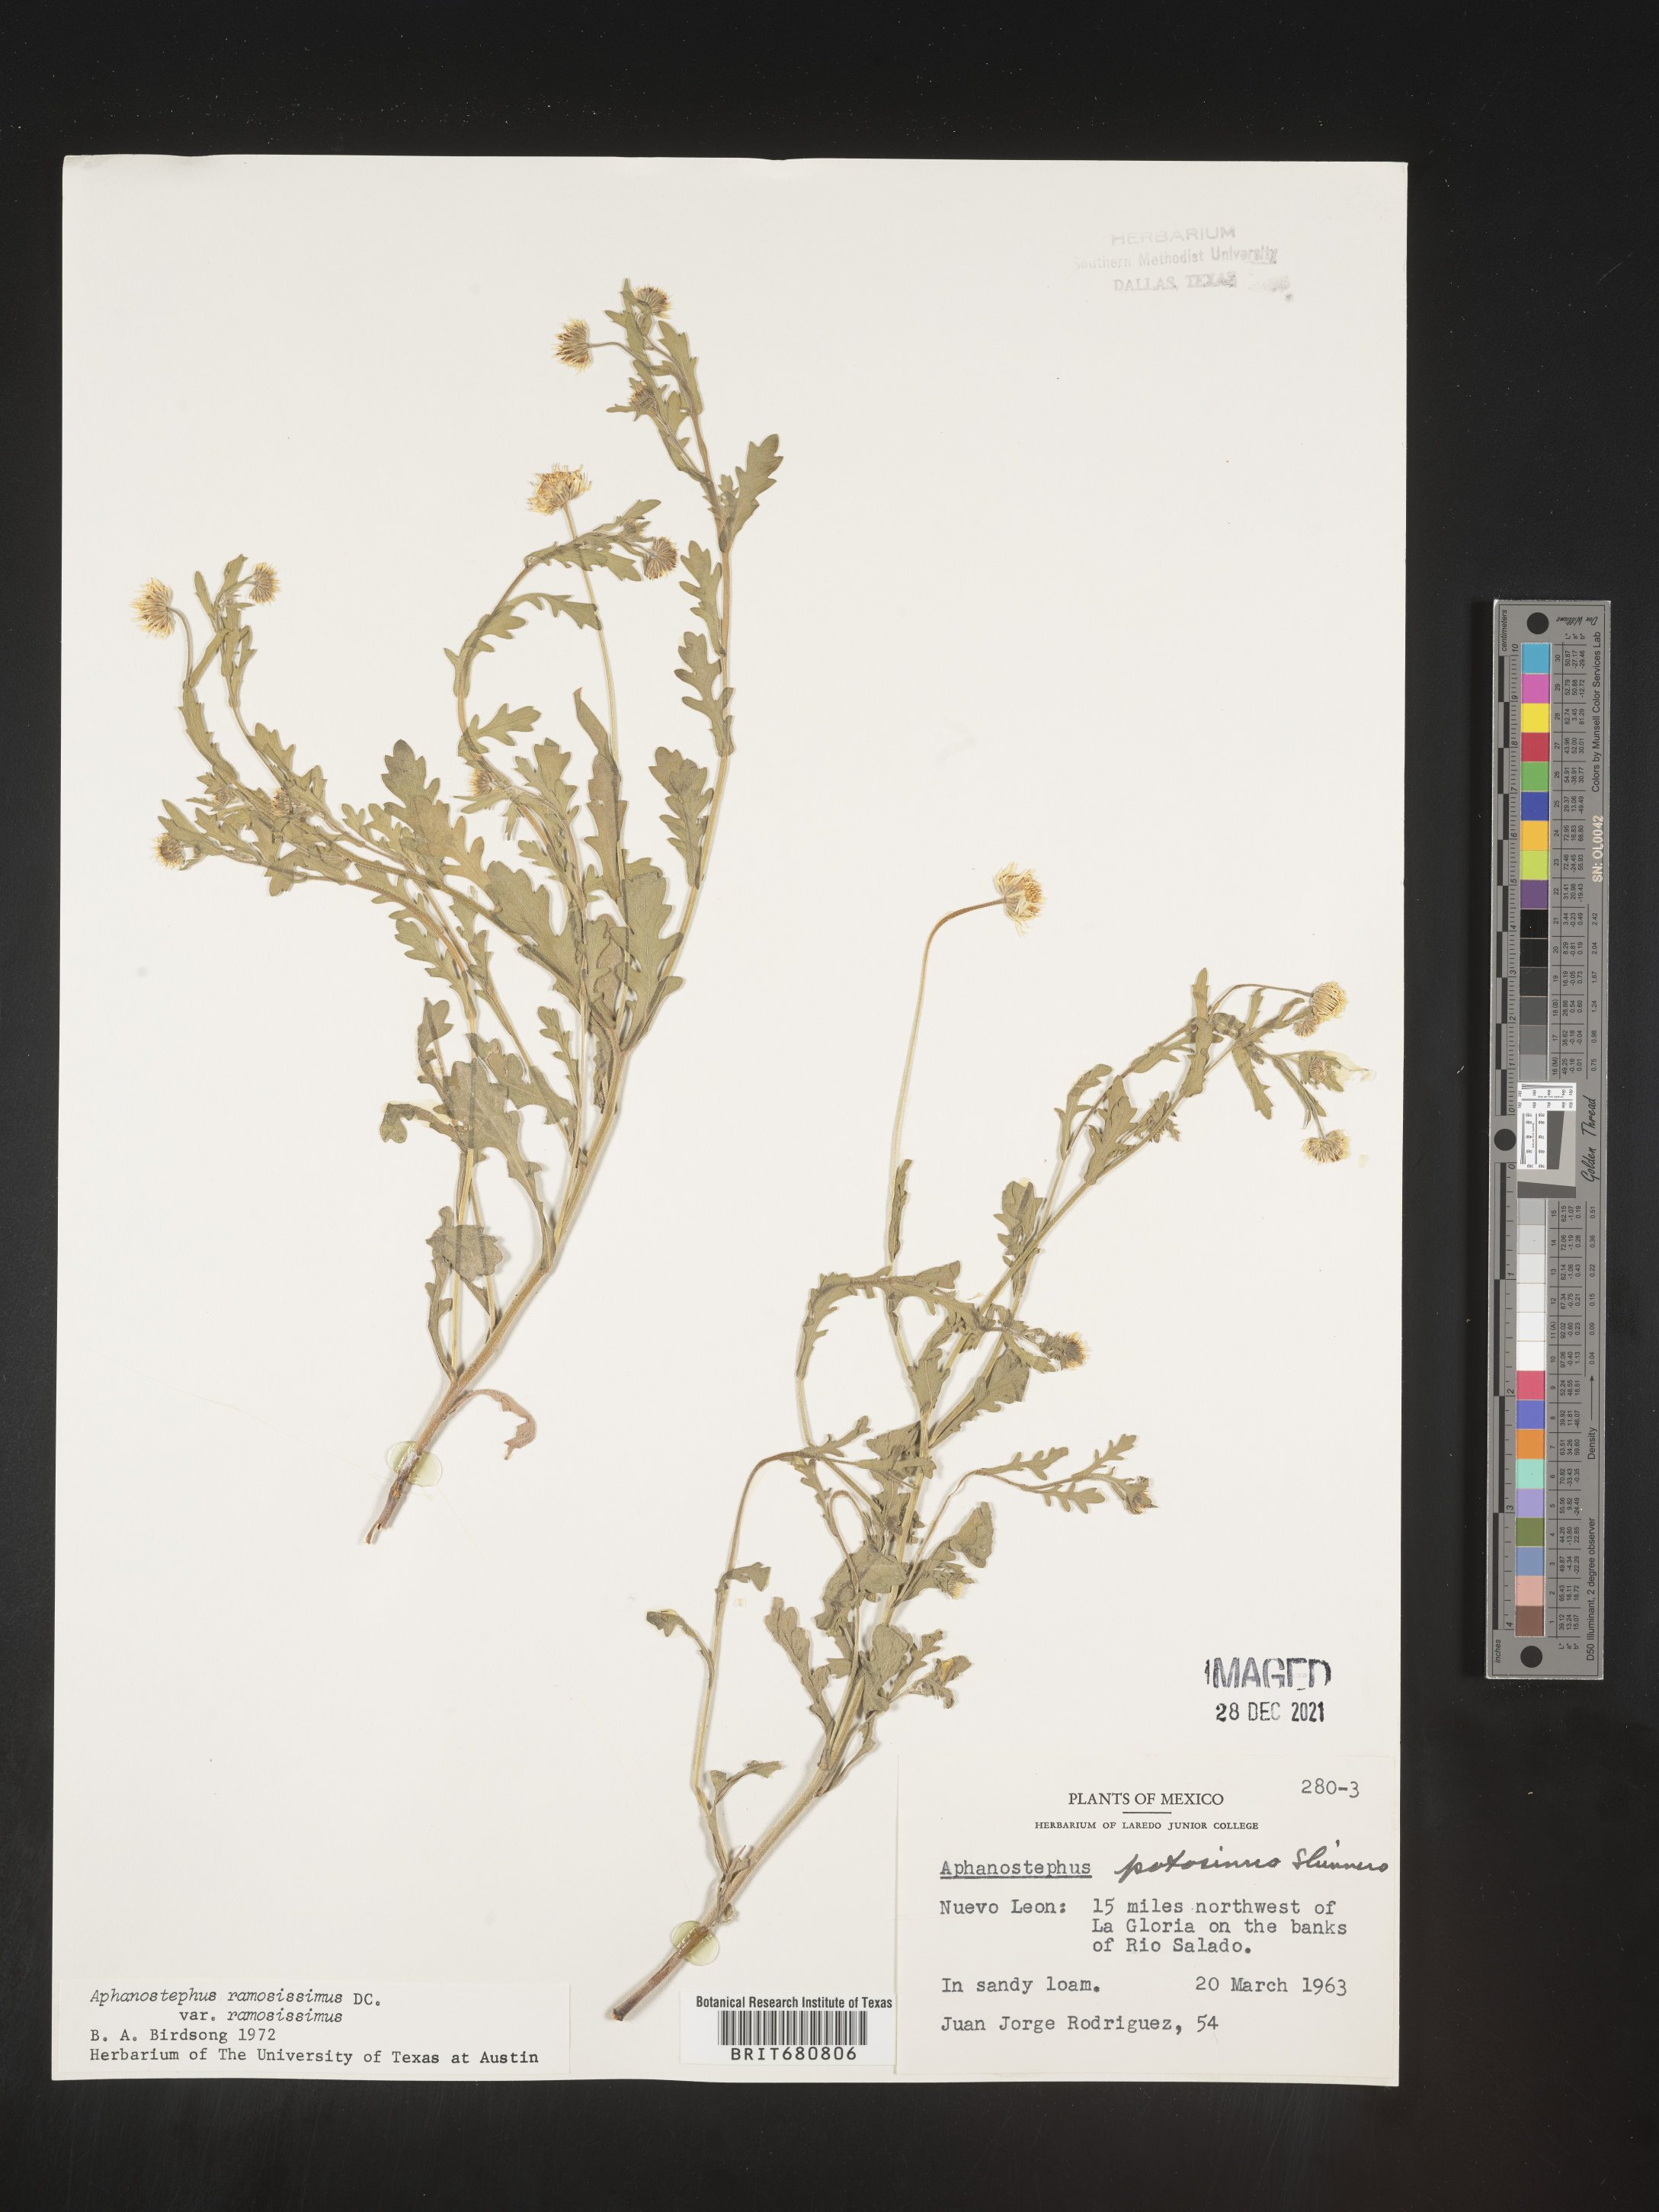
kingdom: Plantae
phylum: Tracheophyta
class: Magnoliopsida
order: Asterales
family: Asteraceae
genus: Aphanostephus
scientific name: Aphanostephus ramosissimus
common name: Plains lazy daisy
